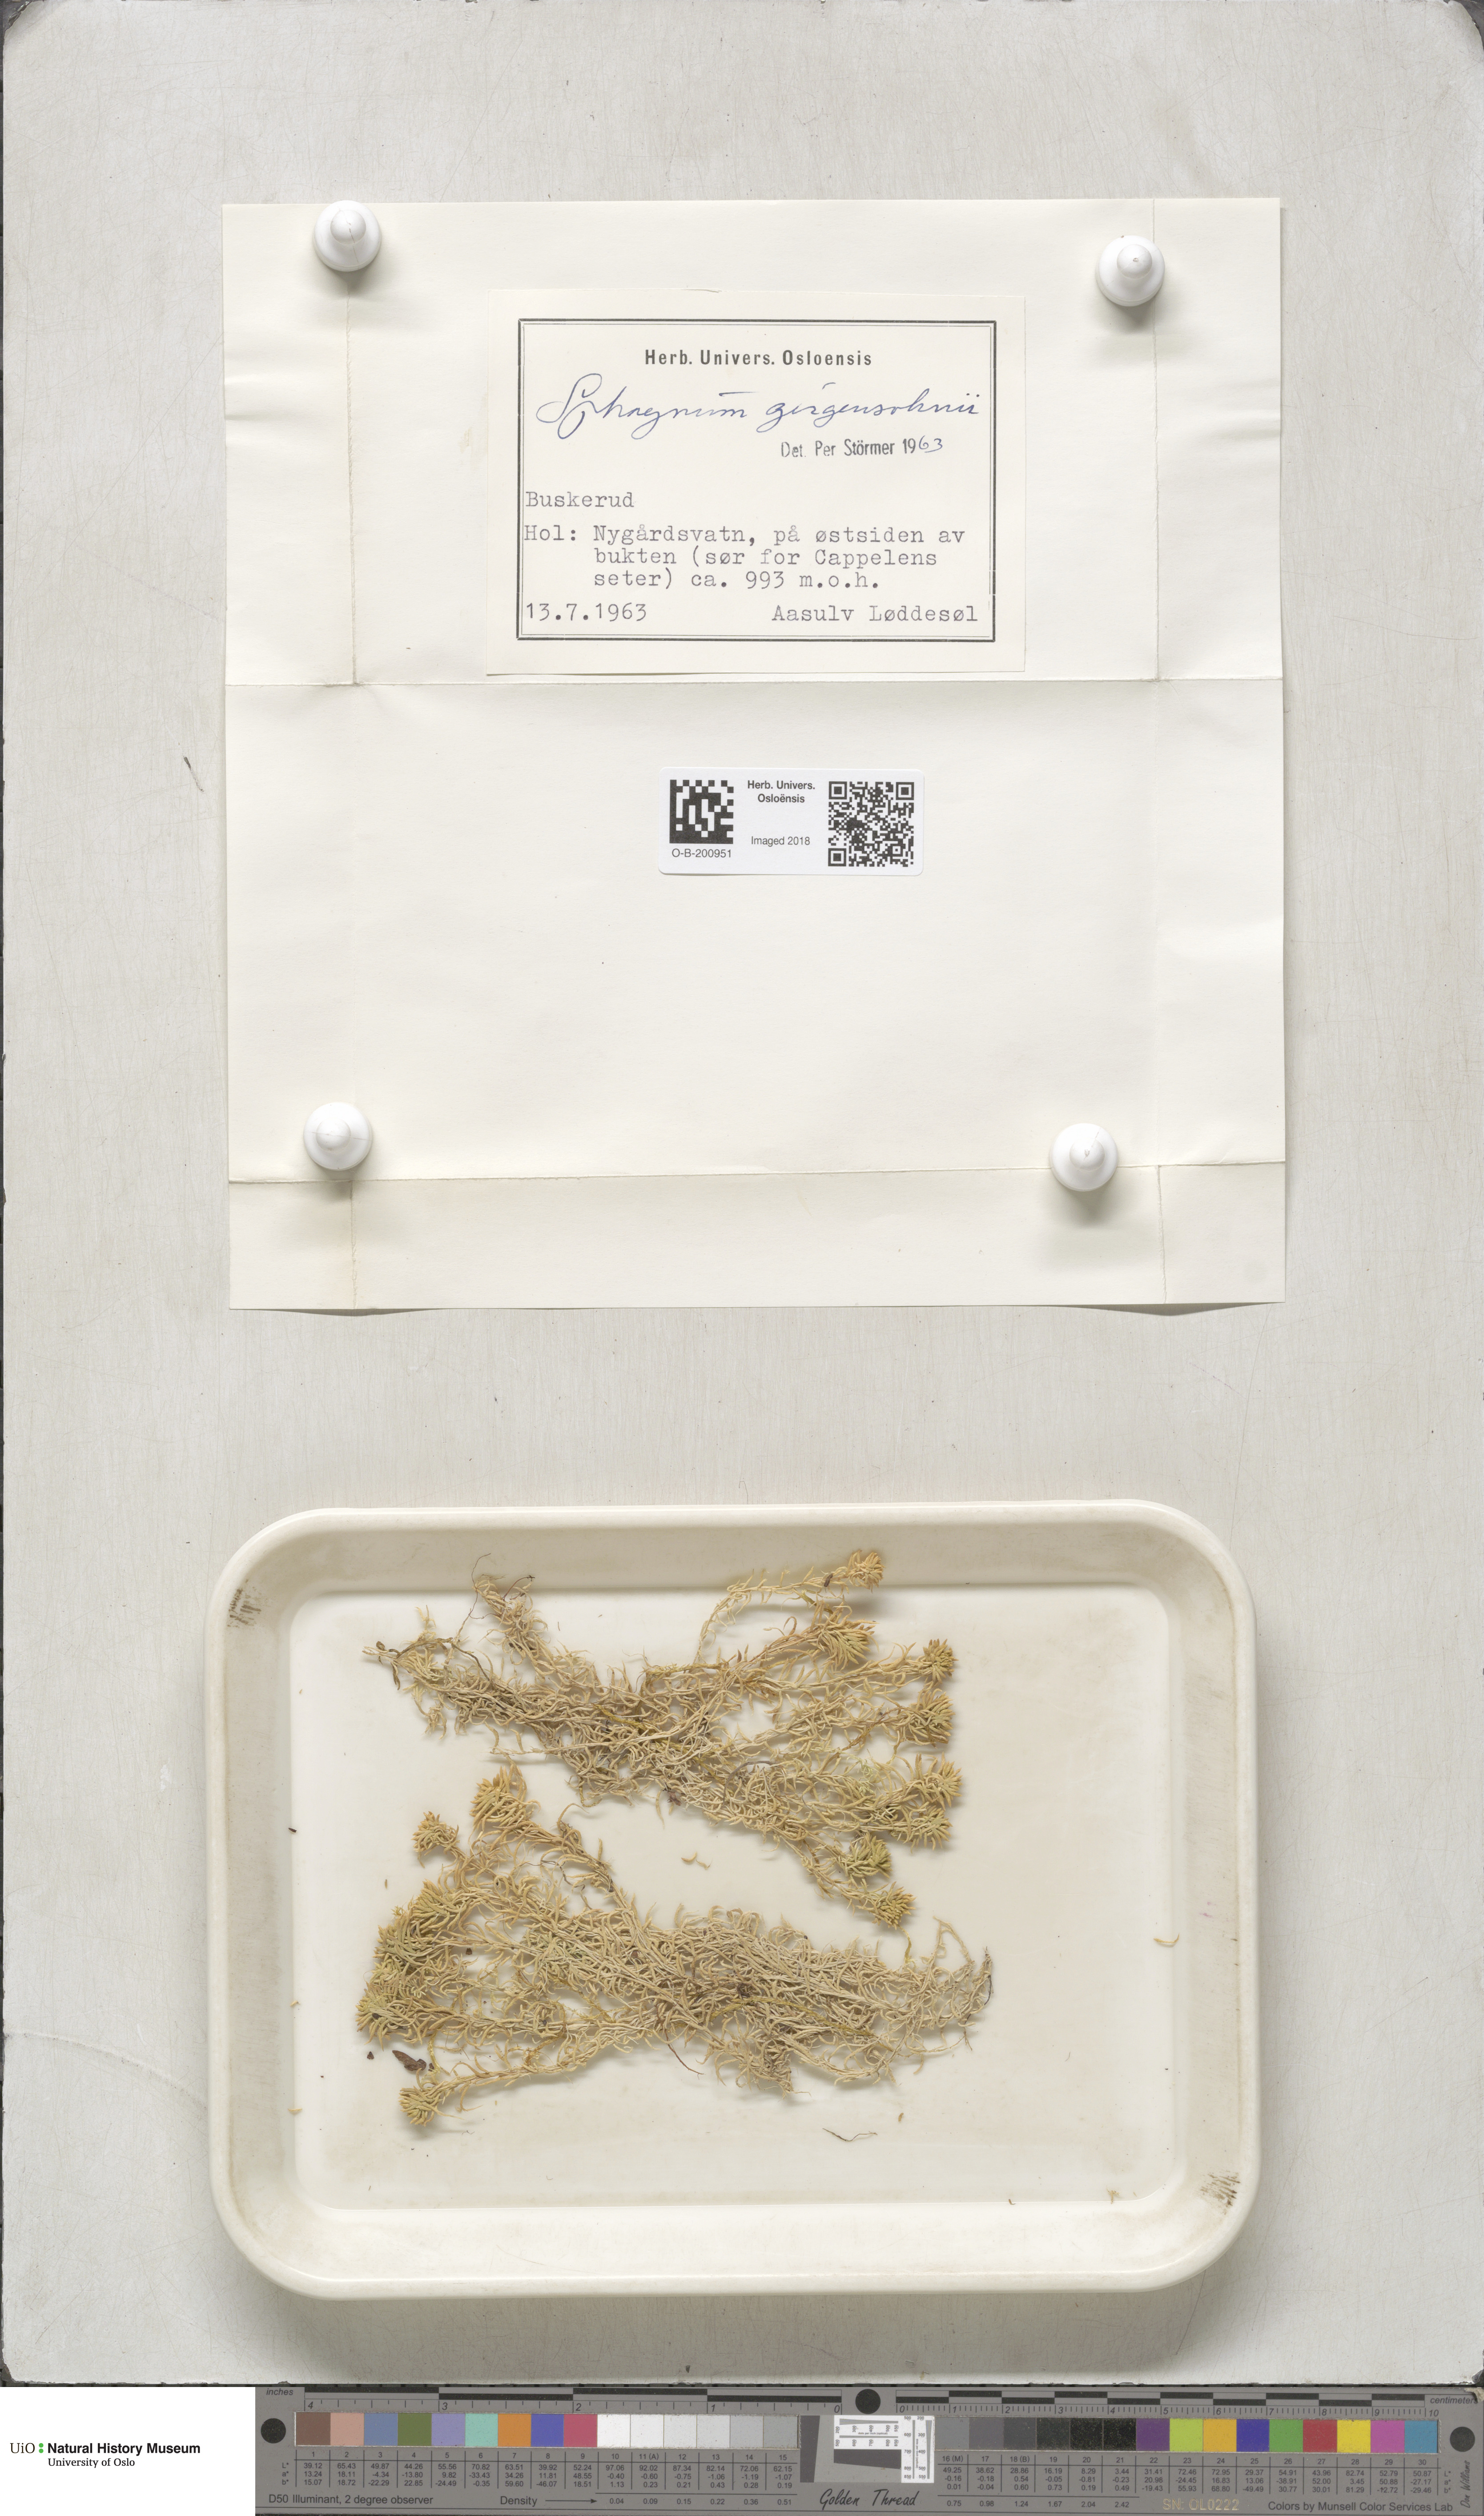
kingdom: Plantae
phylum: Bryophyta
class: Sphagnopsida
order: Sphagnales
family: Sphagnaceae
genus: Sphagnum
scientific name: Sphagnum girgensohnii
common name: Girgensohn's peat moss
